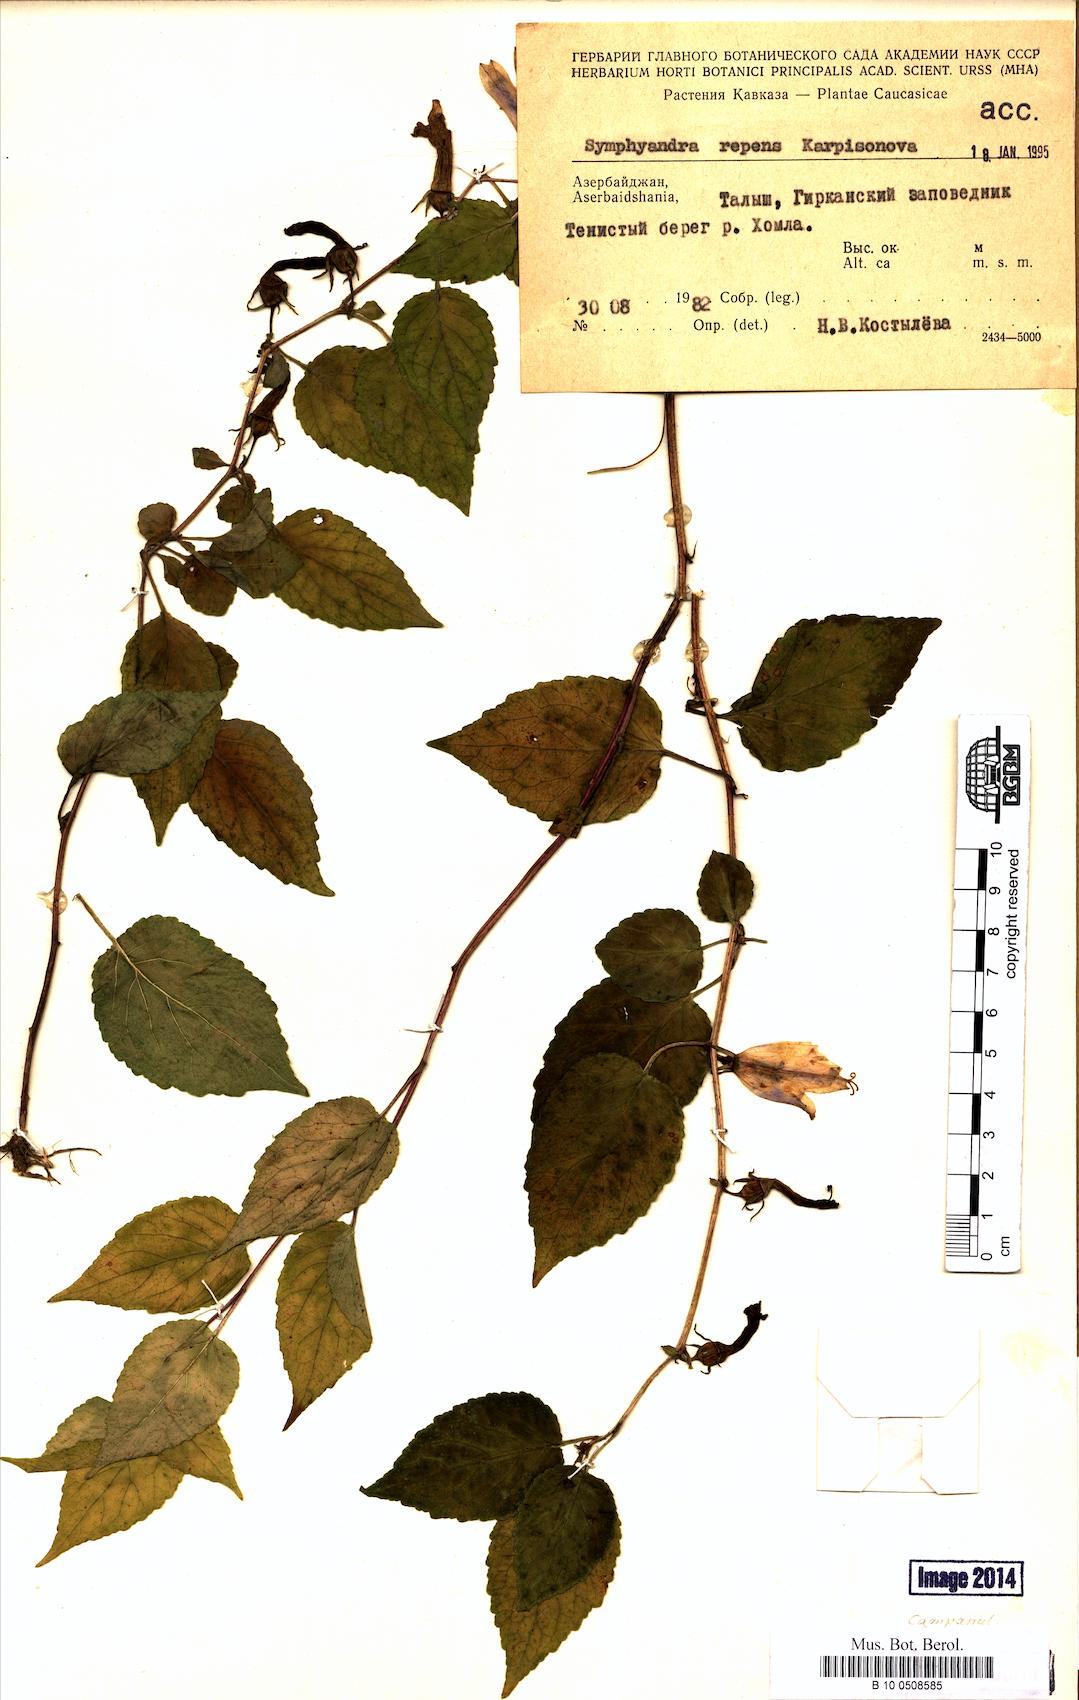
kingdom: Plantae
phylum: Tracheophyta
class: Magnoliopsida
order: Asterales
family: Campanulaceae
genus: Campanula
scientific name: Campanula odontosepala
